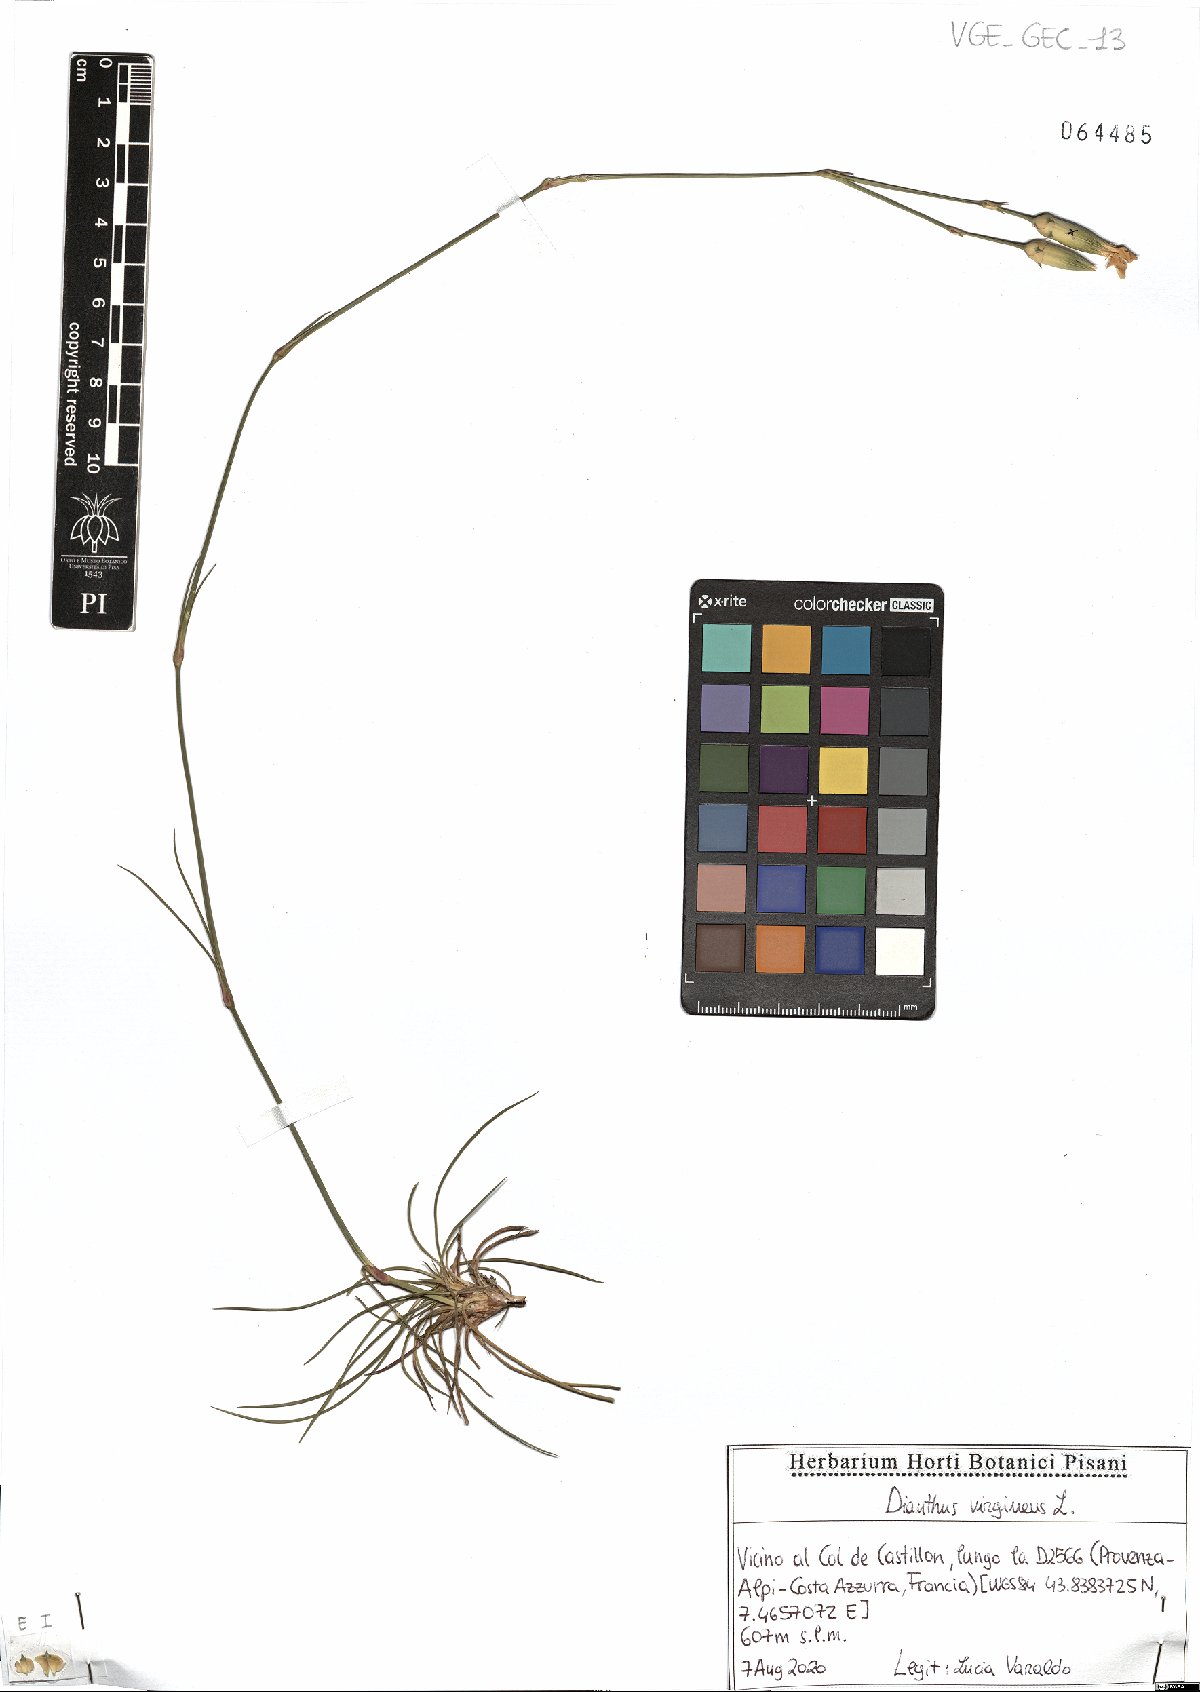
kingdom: Plantae
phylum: Tracheophyta
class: Magnoliopsida
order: Caryophyllales
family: Caryophyllaceae
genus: Dianthus
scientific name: Dianthus virgineus
